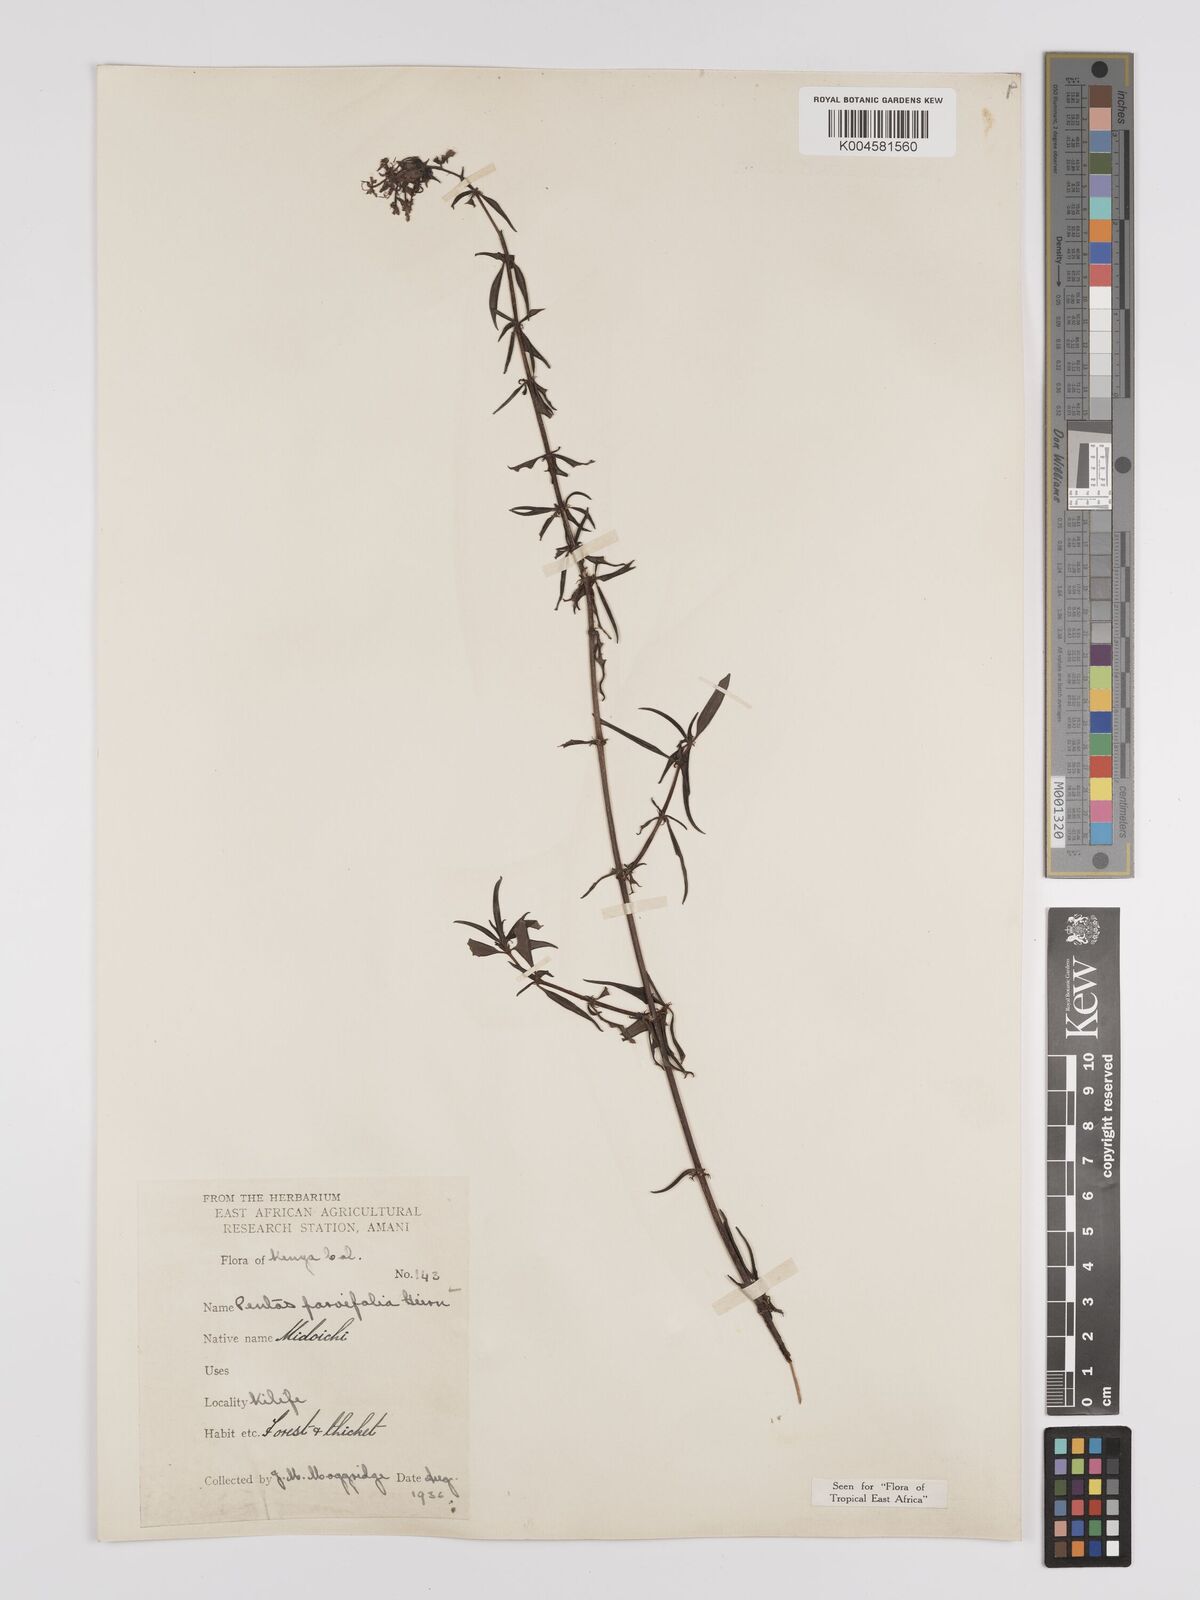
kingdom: Plantae
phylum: Tracheophyta
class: Magnoliopsida
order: Gentianales
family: Rubiaceae
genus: Rhodopentas
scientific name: Rhodopentas parvifolia
